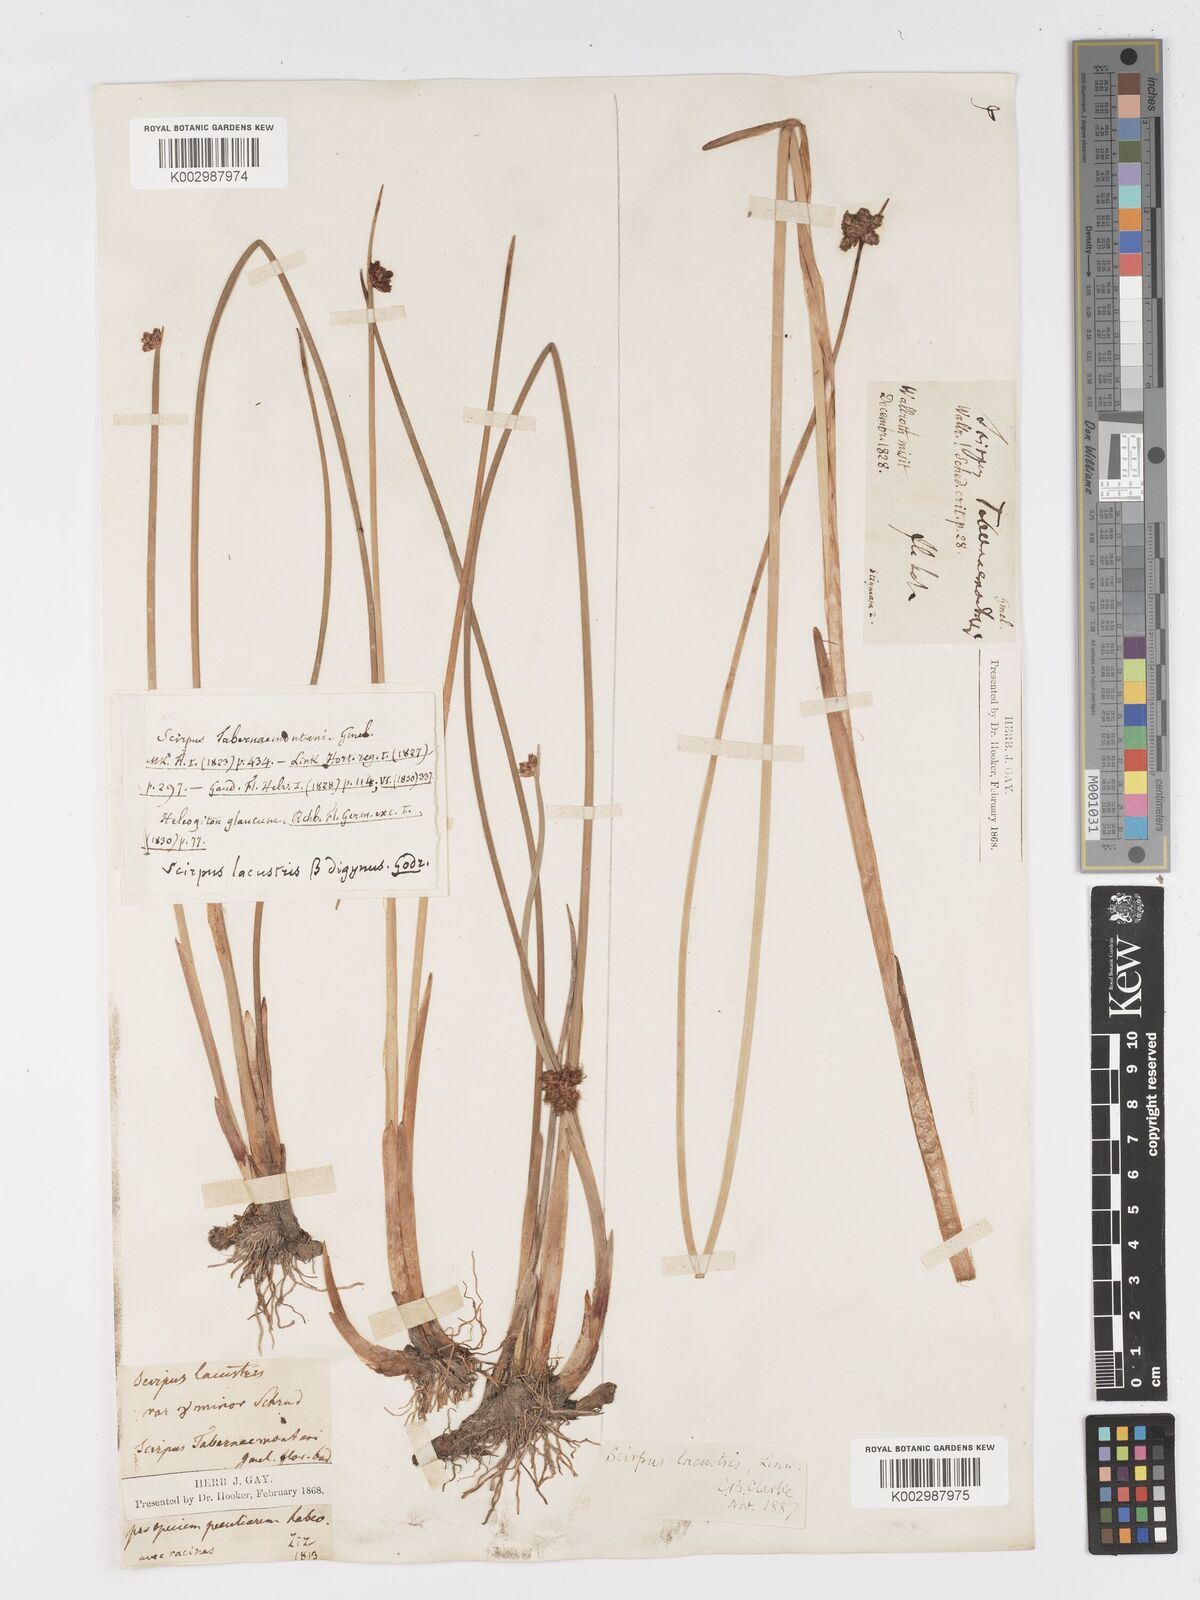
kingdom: Plantae
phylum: Tracheophyta
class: Liliopsida
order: Poales
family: Cyperaceae
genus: Schoenoplectus
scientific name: Schoenoplectus tabernaemontani
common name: Grey club-rush
